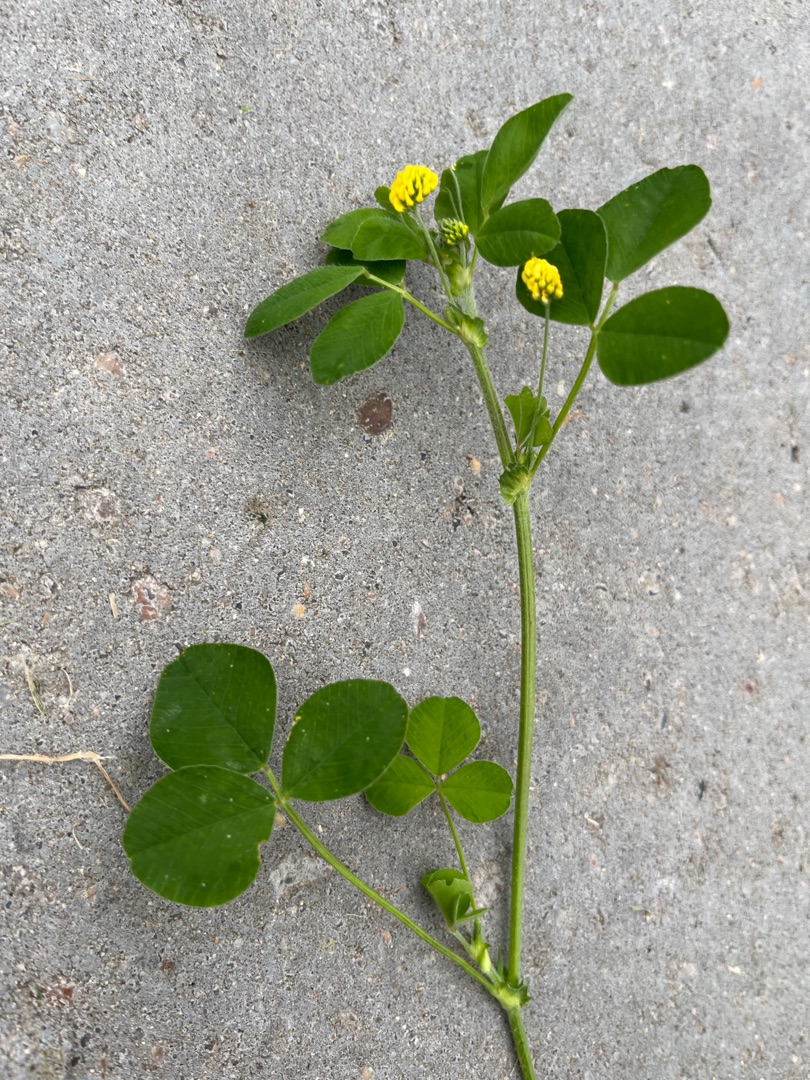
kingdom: Plantae
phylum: Tracheophyta
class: Magnoliopsida
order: Fabales
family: Fabaceae
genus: Medicago
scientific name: Medicago lupulina
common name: Humle-sneglebælg
